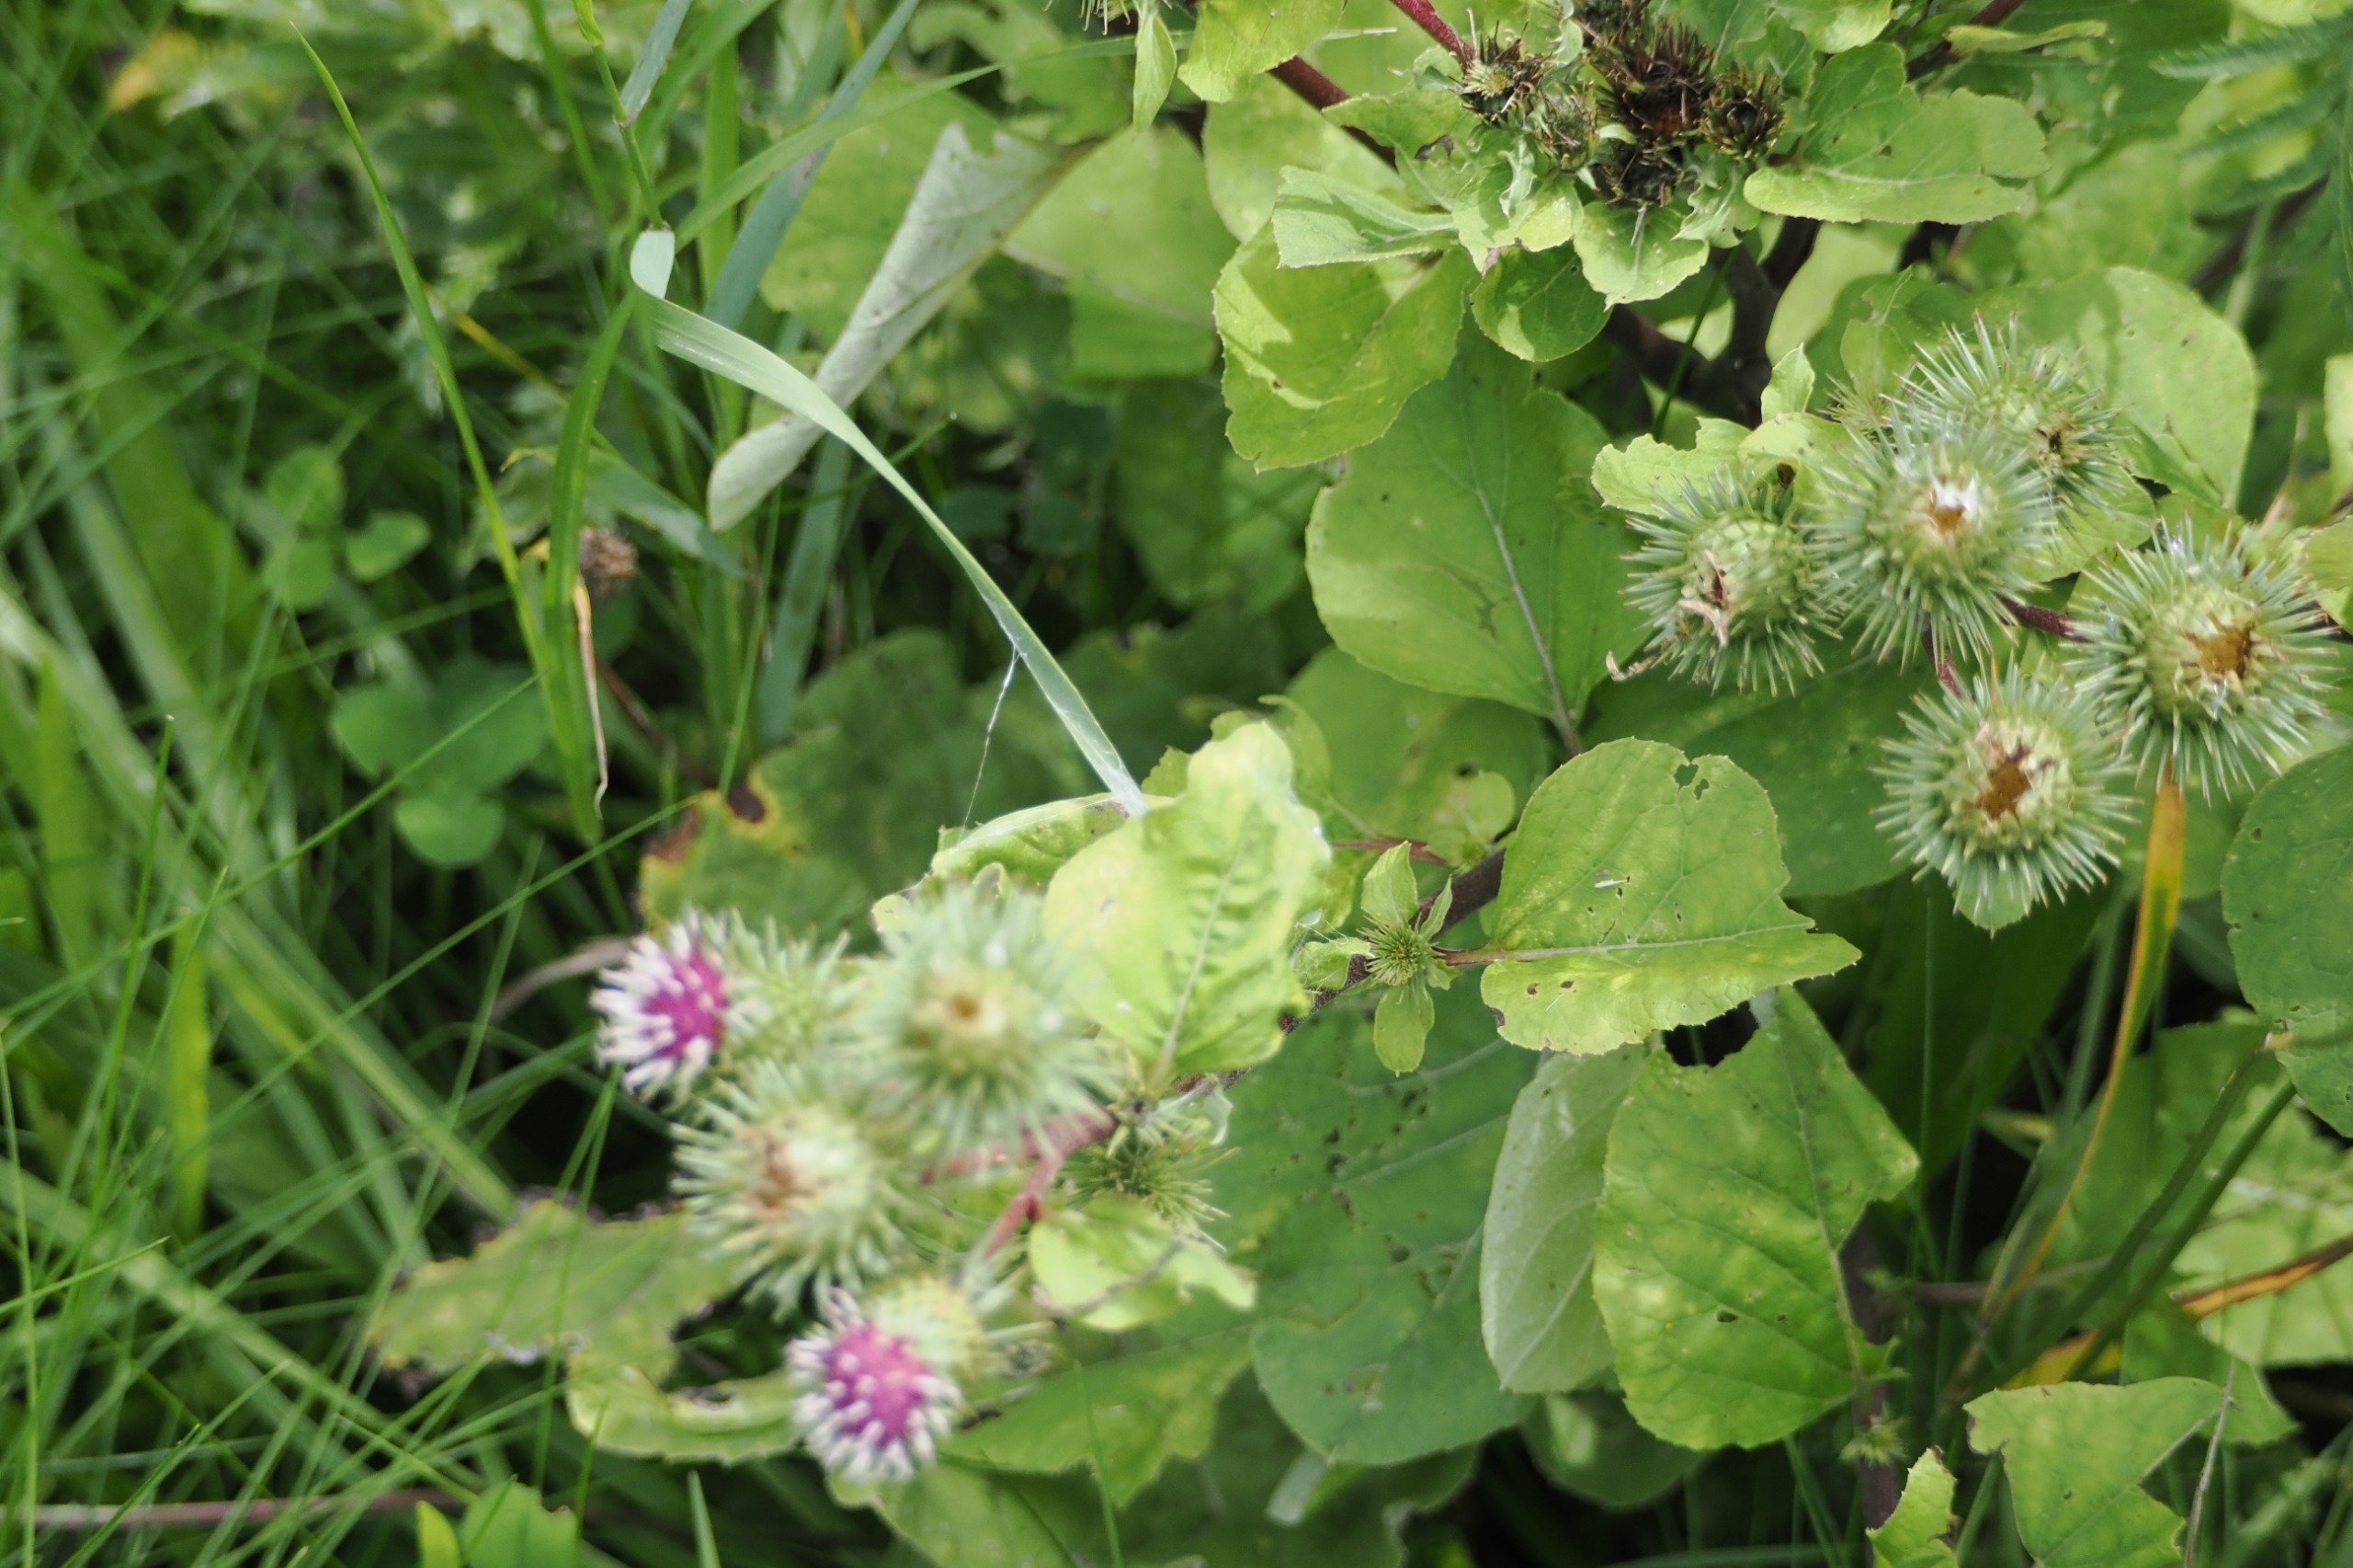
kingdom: Plantae
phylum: Tracheophyta
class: Magnoliopsida
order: Asterales
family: Asteraceae
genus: Arctium
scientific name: Arctium lappa
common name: Glat burre
